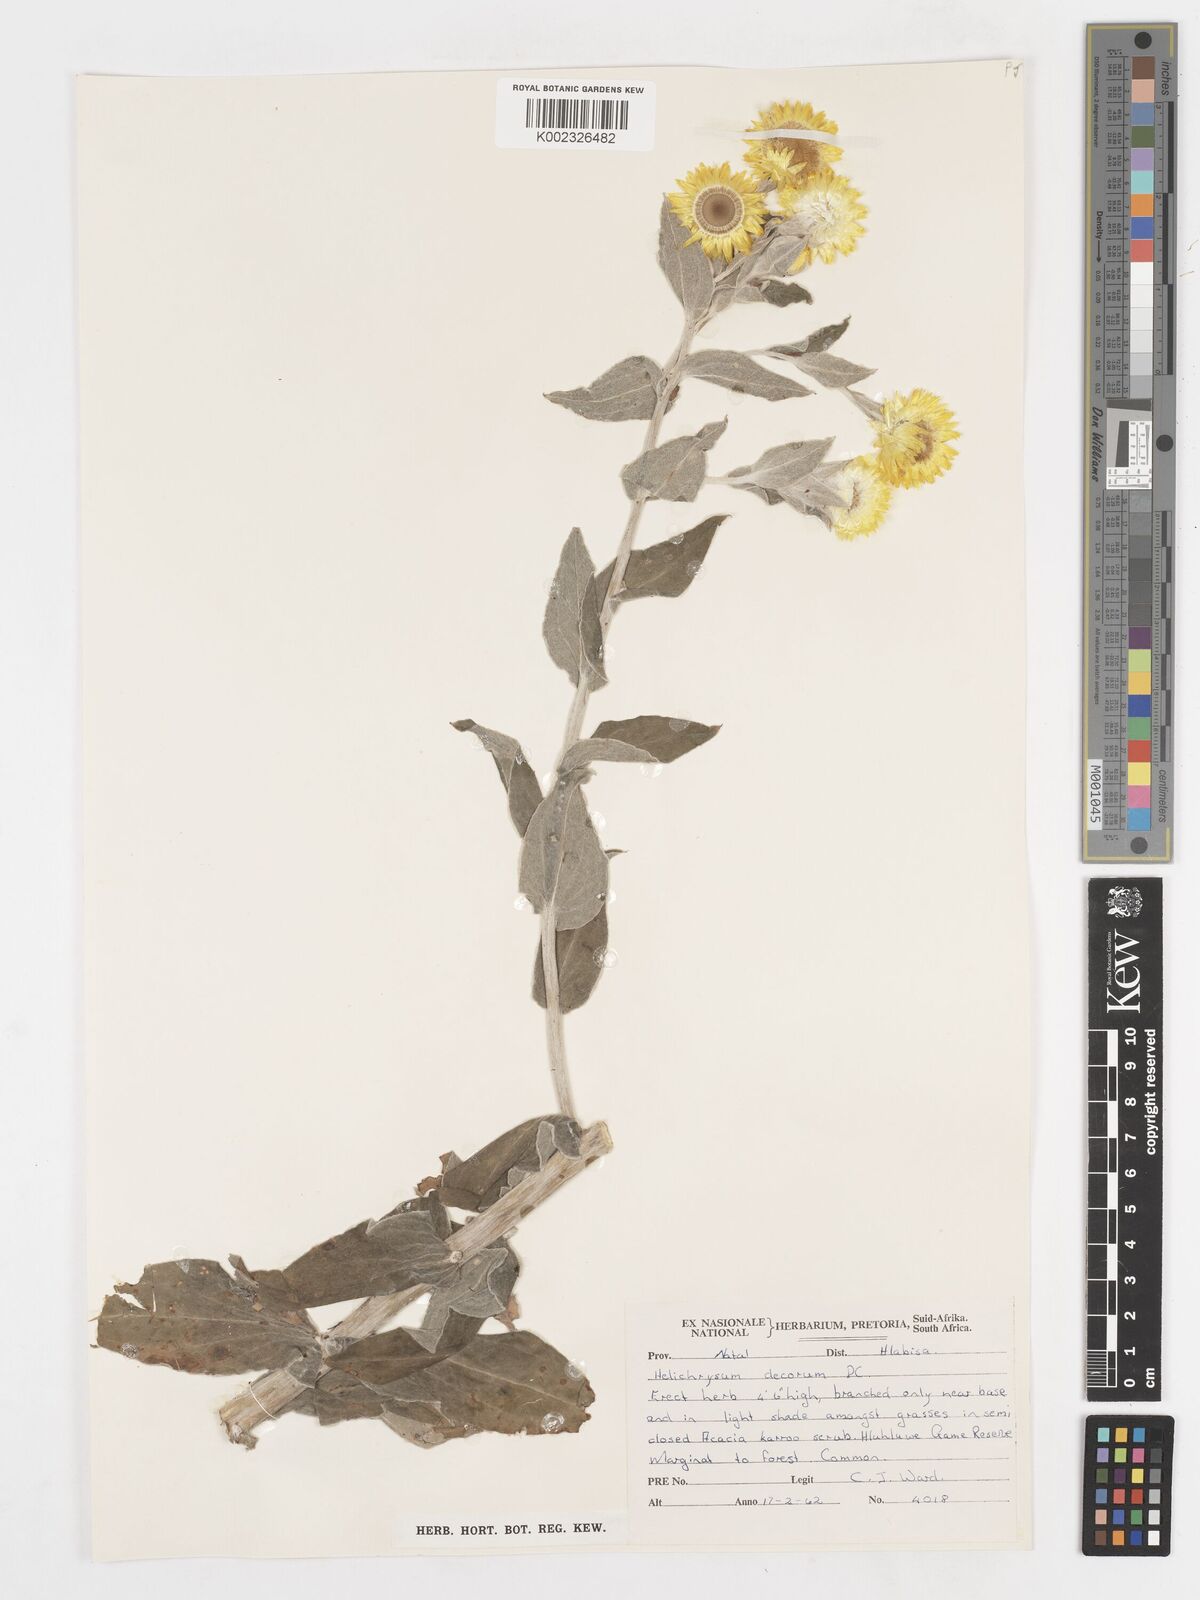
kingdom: Plantae
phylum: Tracheophyta
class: Magnoliopsida
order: Asterales
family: Asteraceae
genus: Helichrysum
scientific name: Helichrysum decorum
